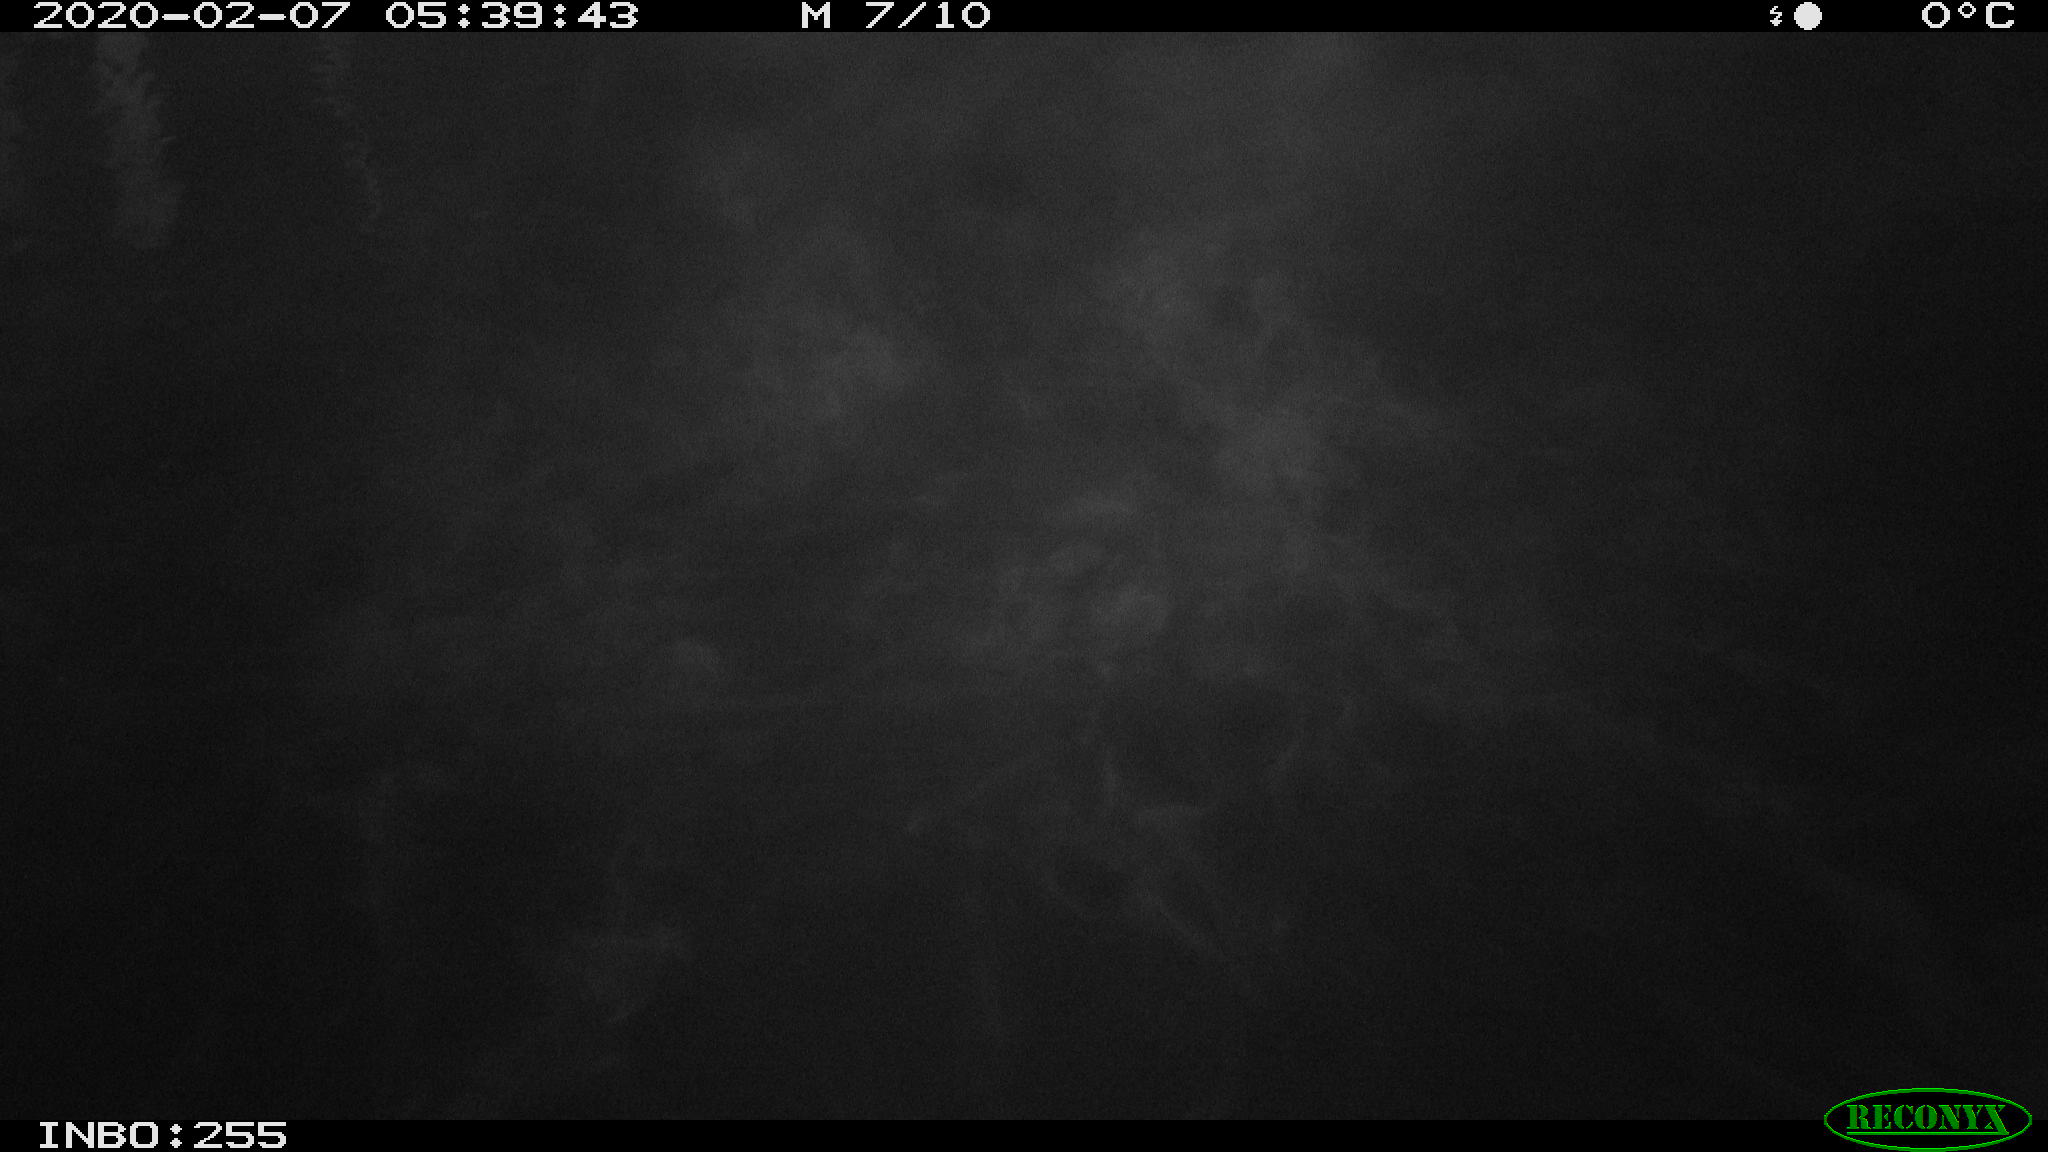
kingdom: Animalia
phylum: Chordata
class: Aves
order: Anseriformes
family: Anatidae
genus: Anas
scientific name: Anas platyrhynchos
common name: Mallard
